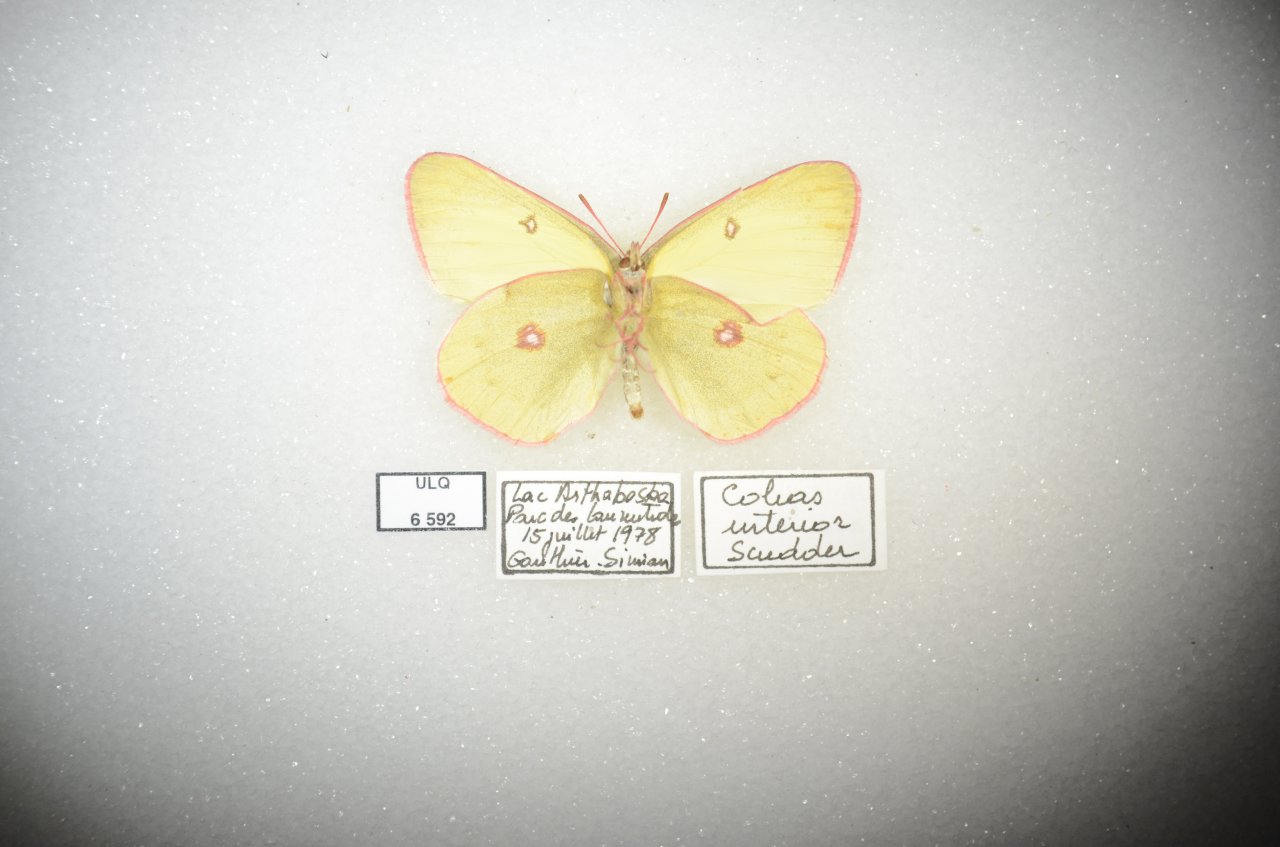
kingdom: Animalia
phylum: Arthropoda
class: Insecta
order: Lepidoptera
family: Pieridae
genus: Colias
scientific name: Colias interior
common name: Pink-edged Sulphur
